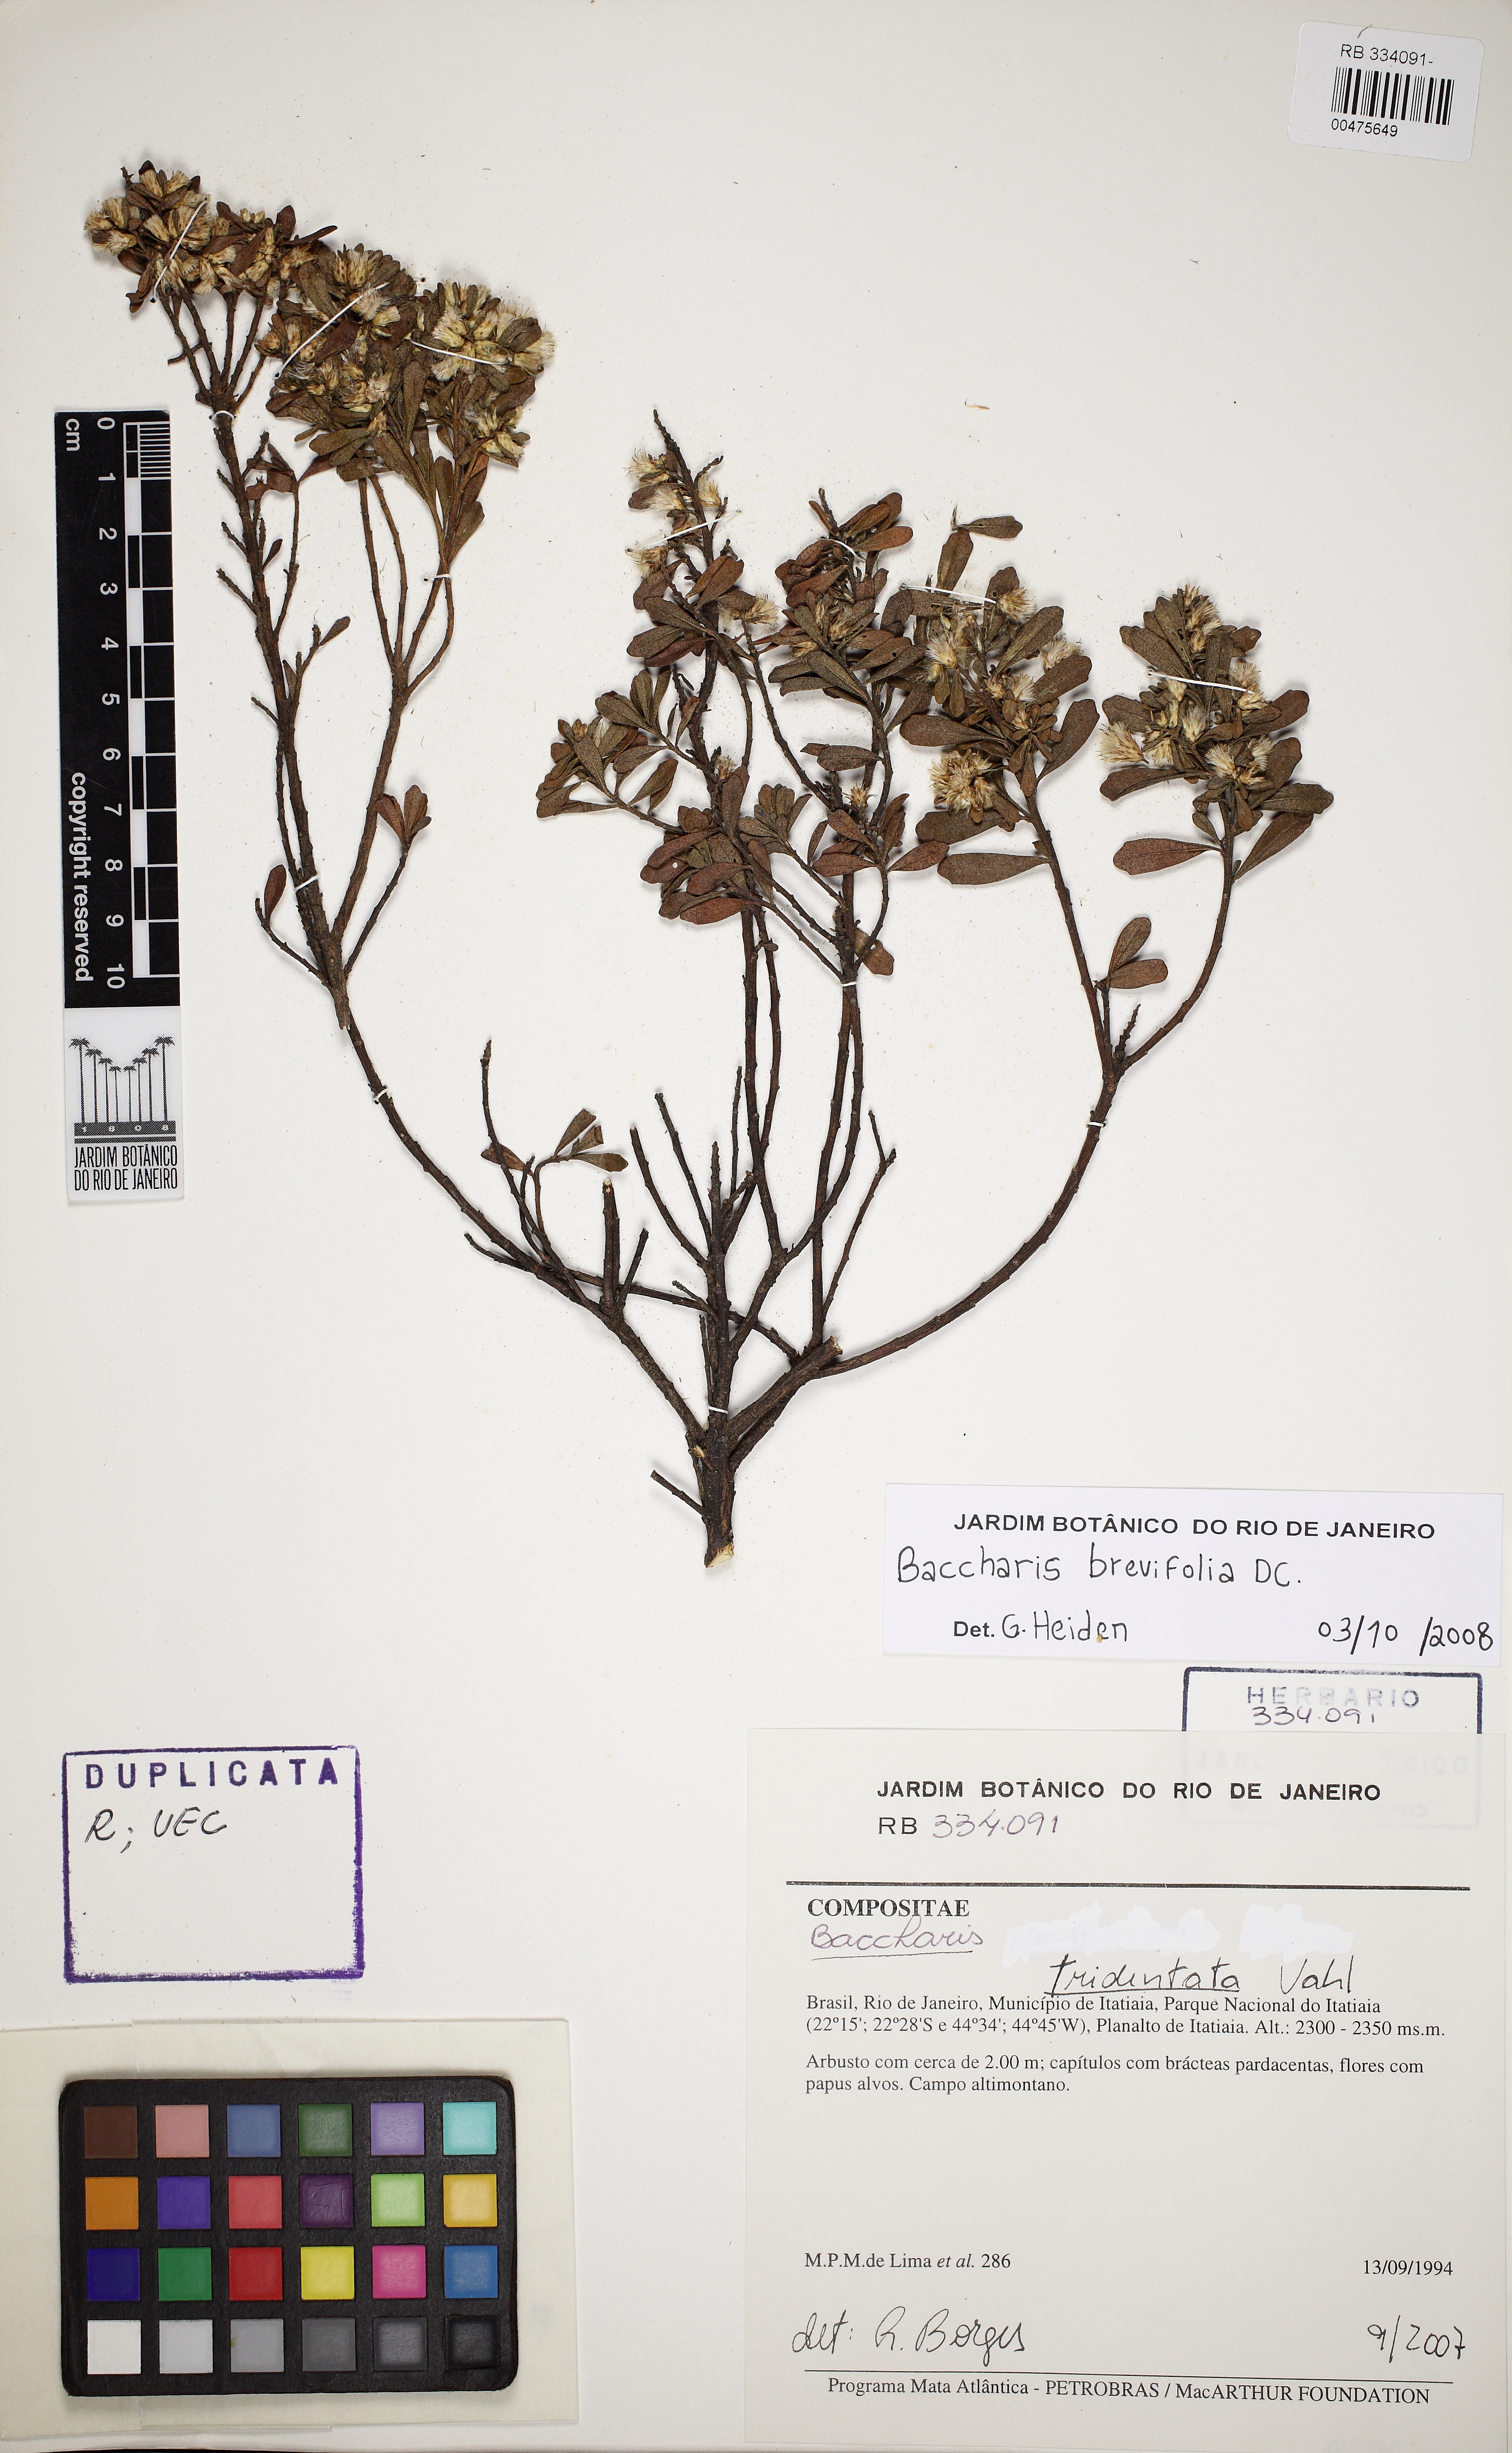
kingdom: Plantae
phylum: Tracheophyta
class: Magnoliopsida
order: Asterales
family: Asteraceae
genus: Baccharis
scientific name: Baccharis brevifolia
